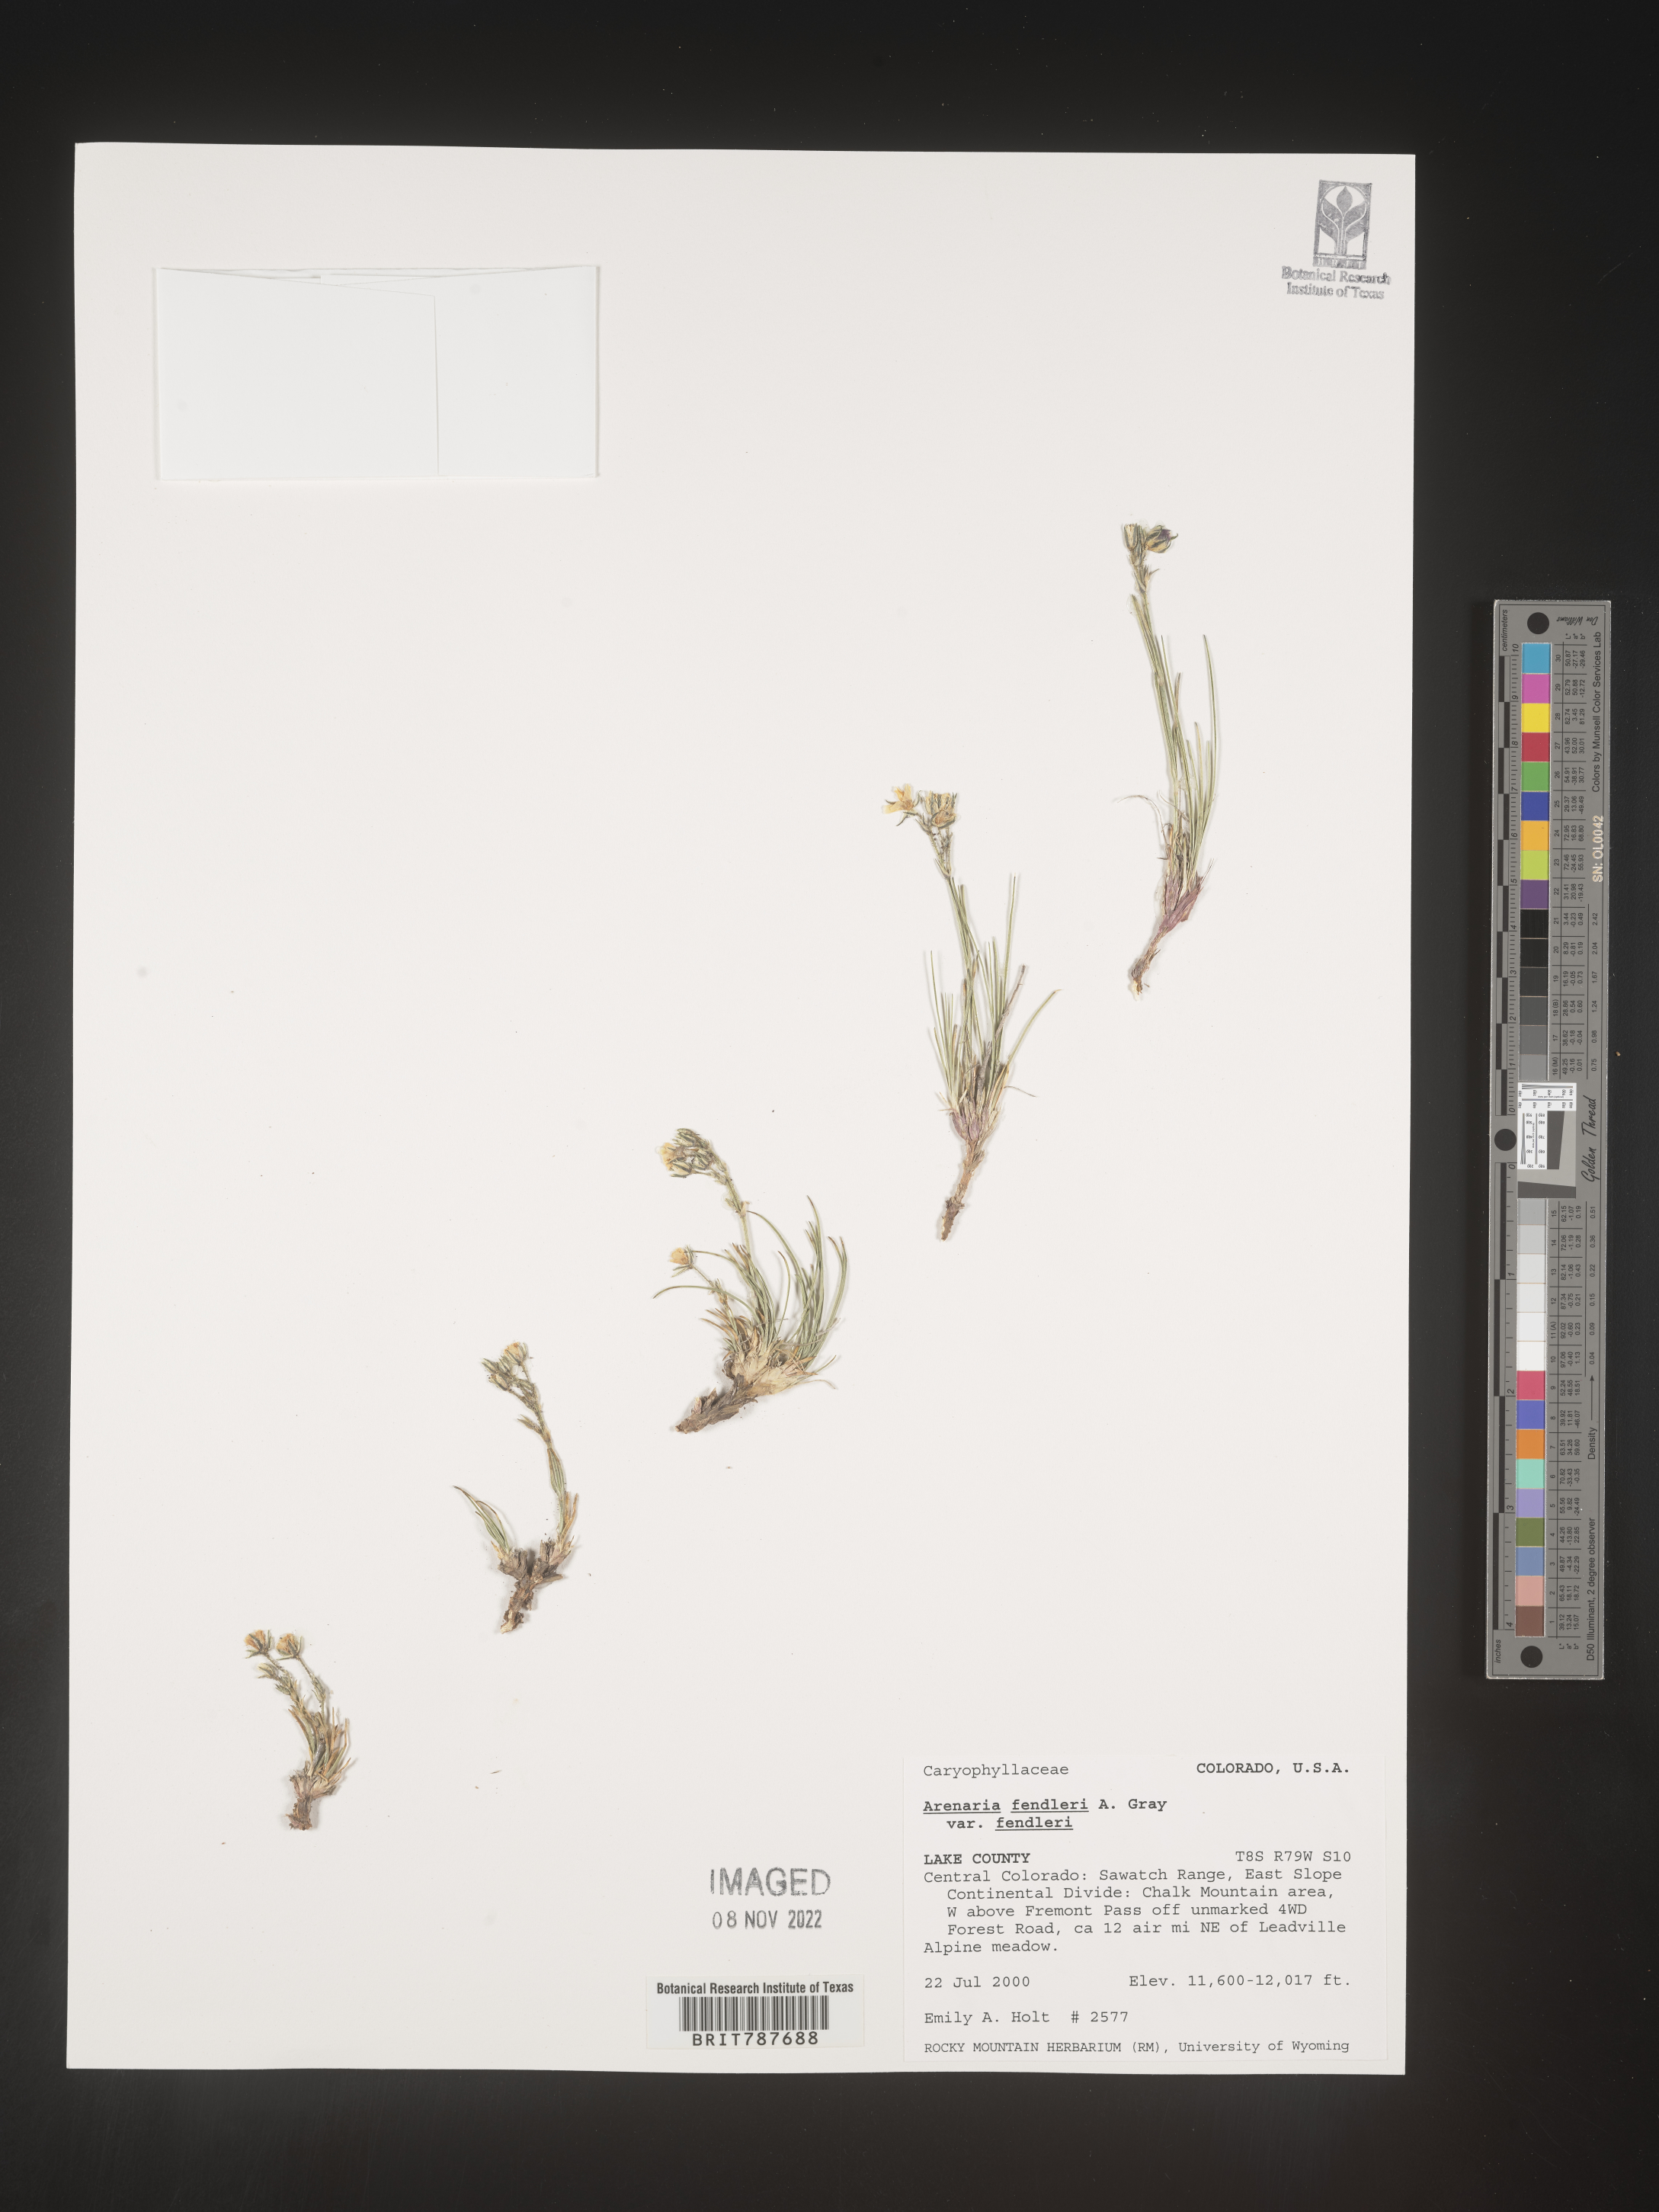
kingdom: Plantae
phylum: Tracheophyta
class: Magnoliopsida
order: Caryophyllales
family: Caryophyllaceae
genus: Arenaria
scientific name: Arenaria
